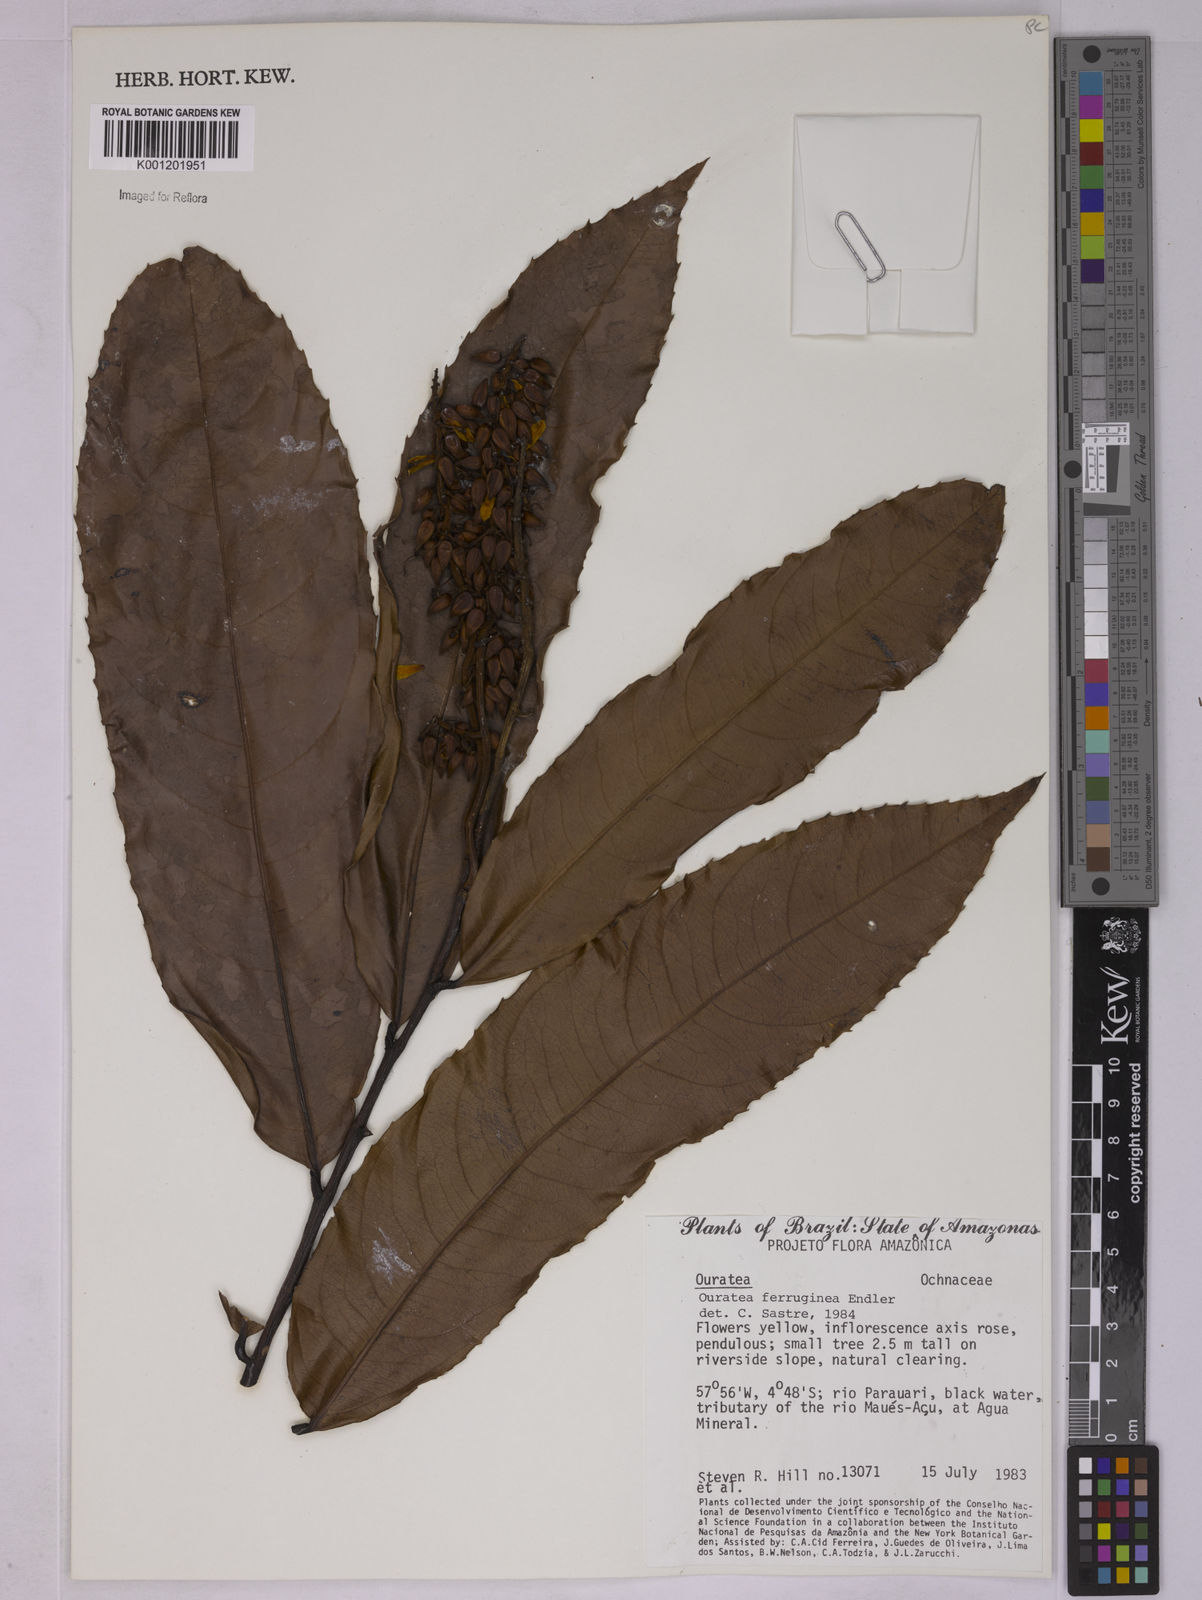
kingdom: Plantae
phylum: Tracheophyta
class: Magnoliopsida
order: Malpighiales
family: Ochnaceae
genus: Ouratea
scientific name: Ouratea ferruginea
